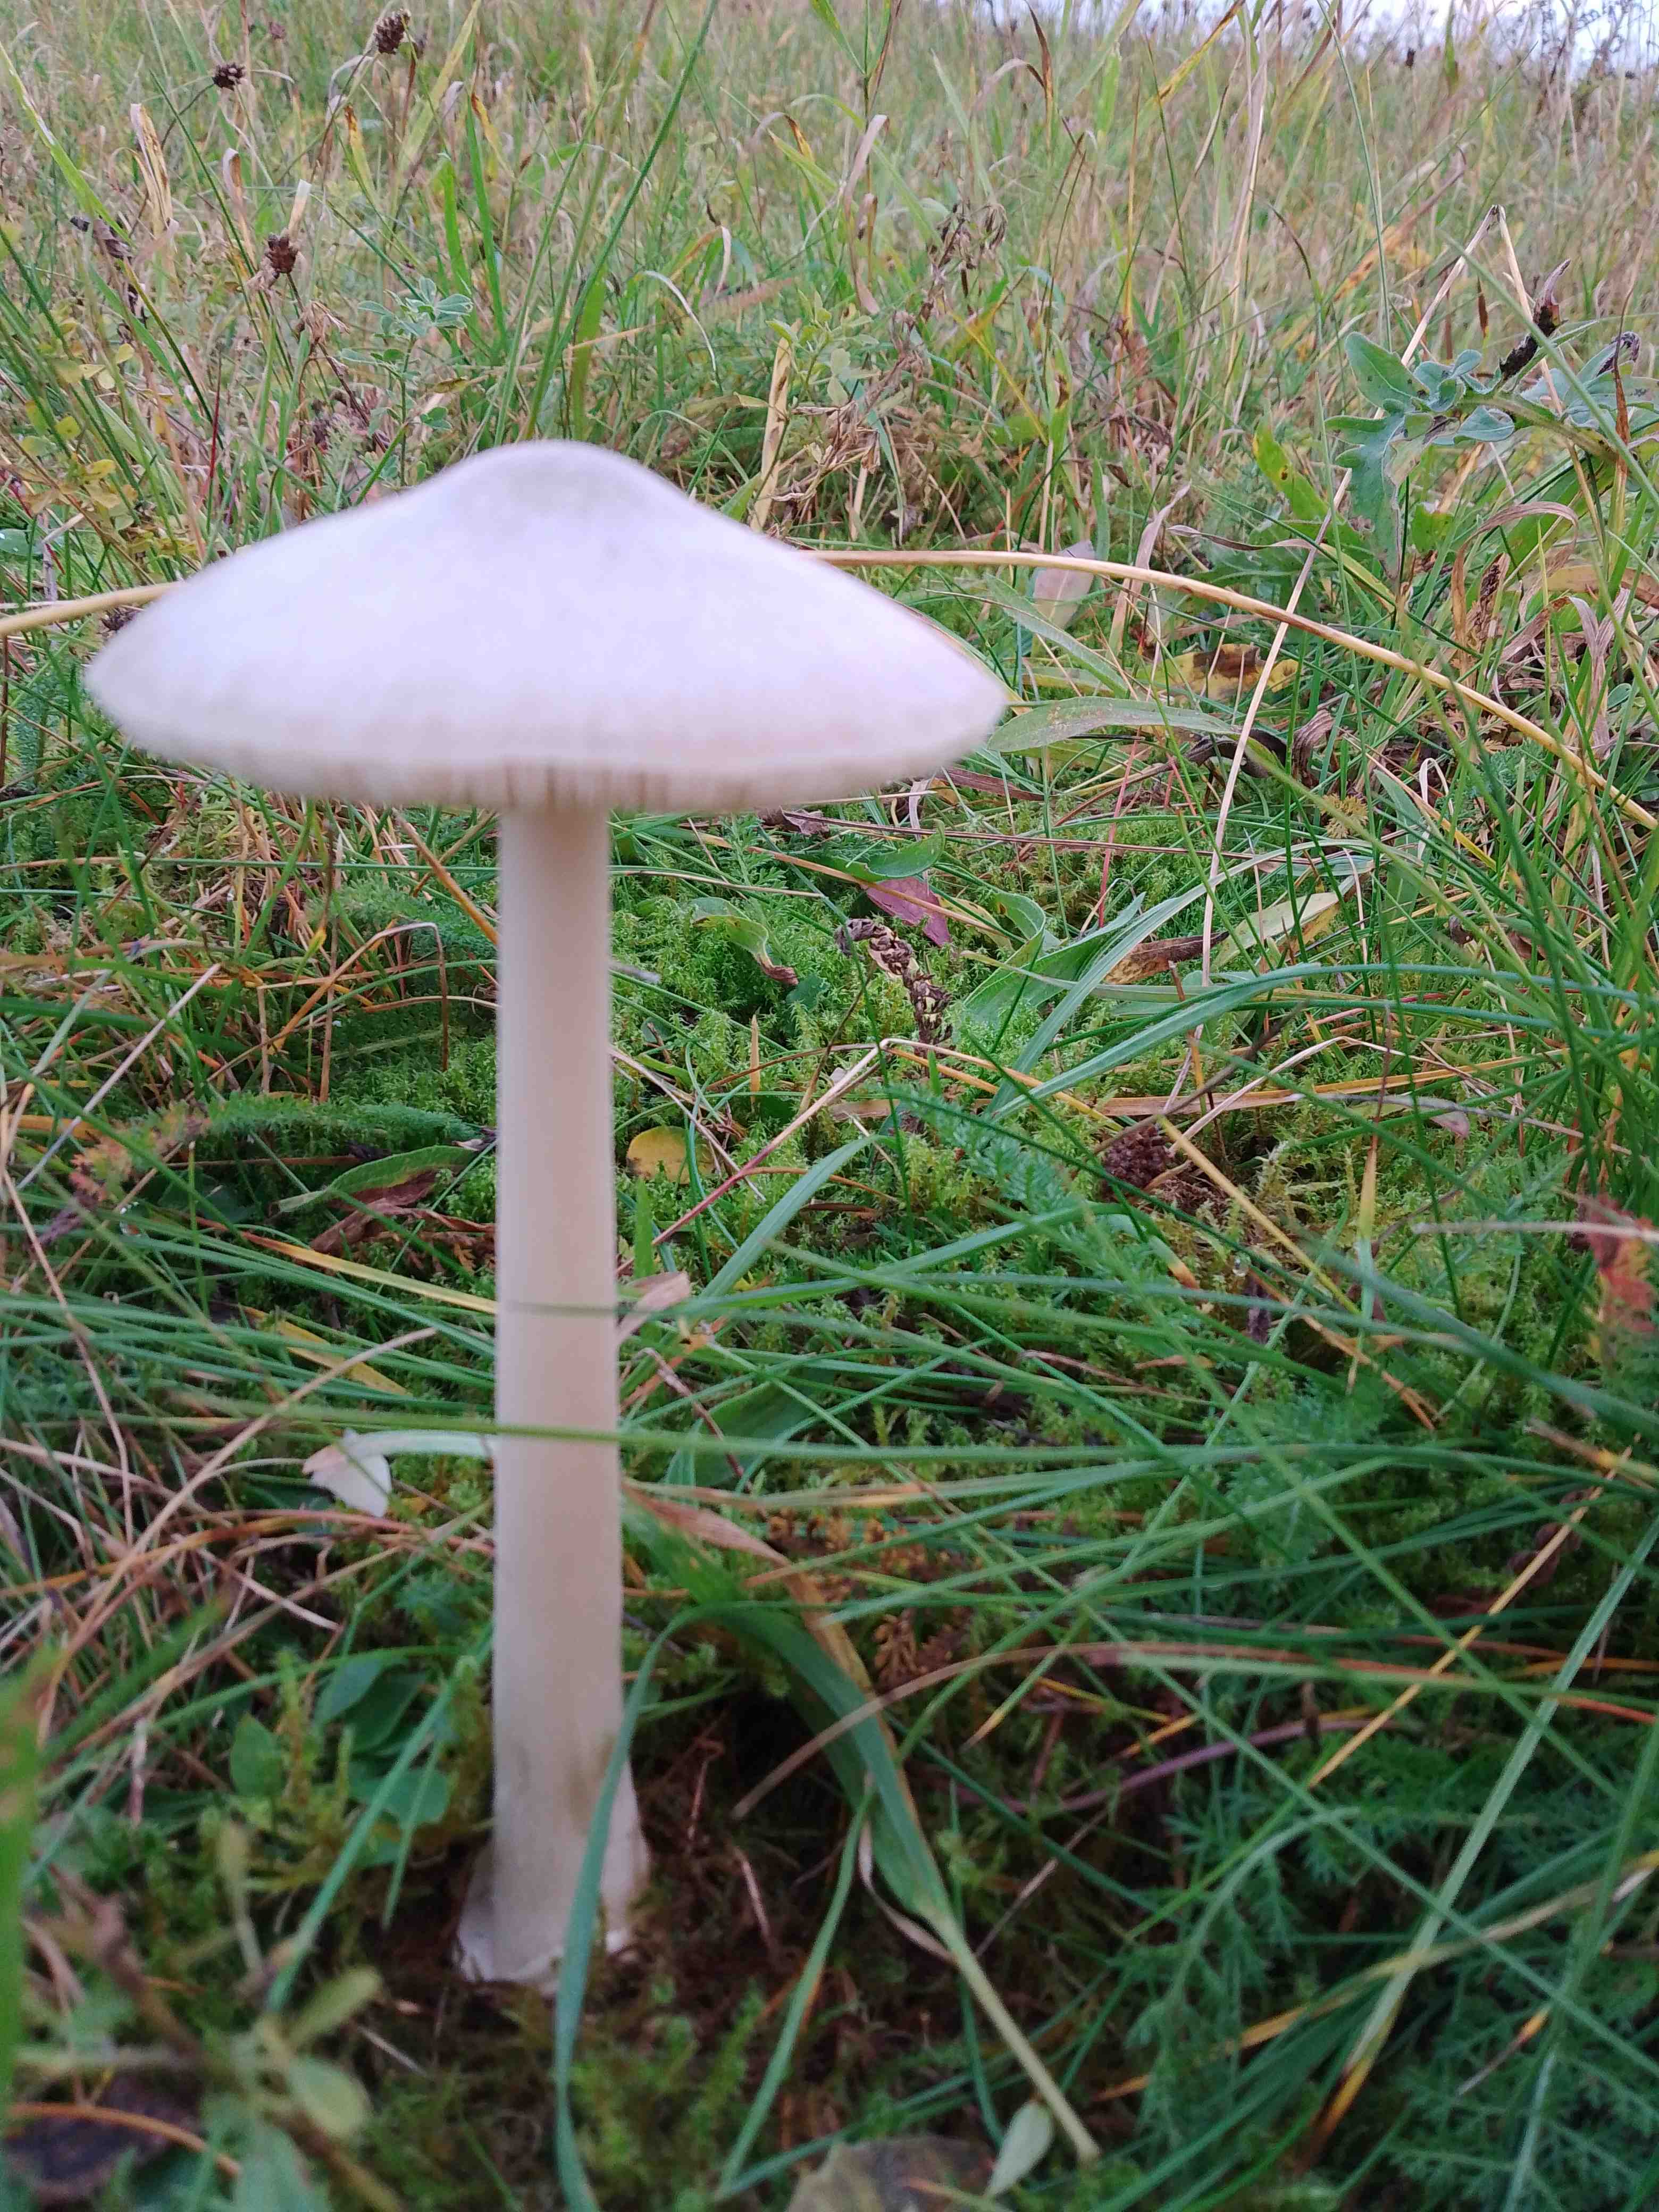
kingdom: Fungi
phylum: Basidiomycota
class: Agaricomycetes
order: Agaricales
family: Pluteaceae
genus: Volvopluteus
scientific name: Volvopluteus gloiocephalus
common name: høj posesvamp
